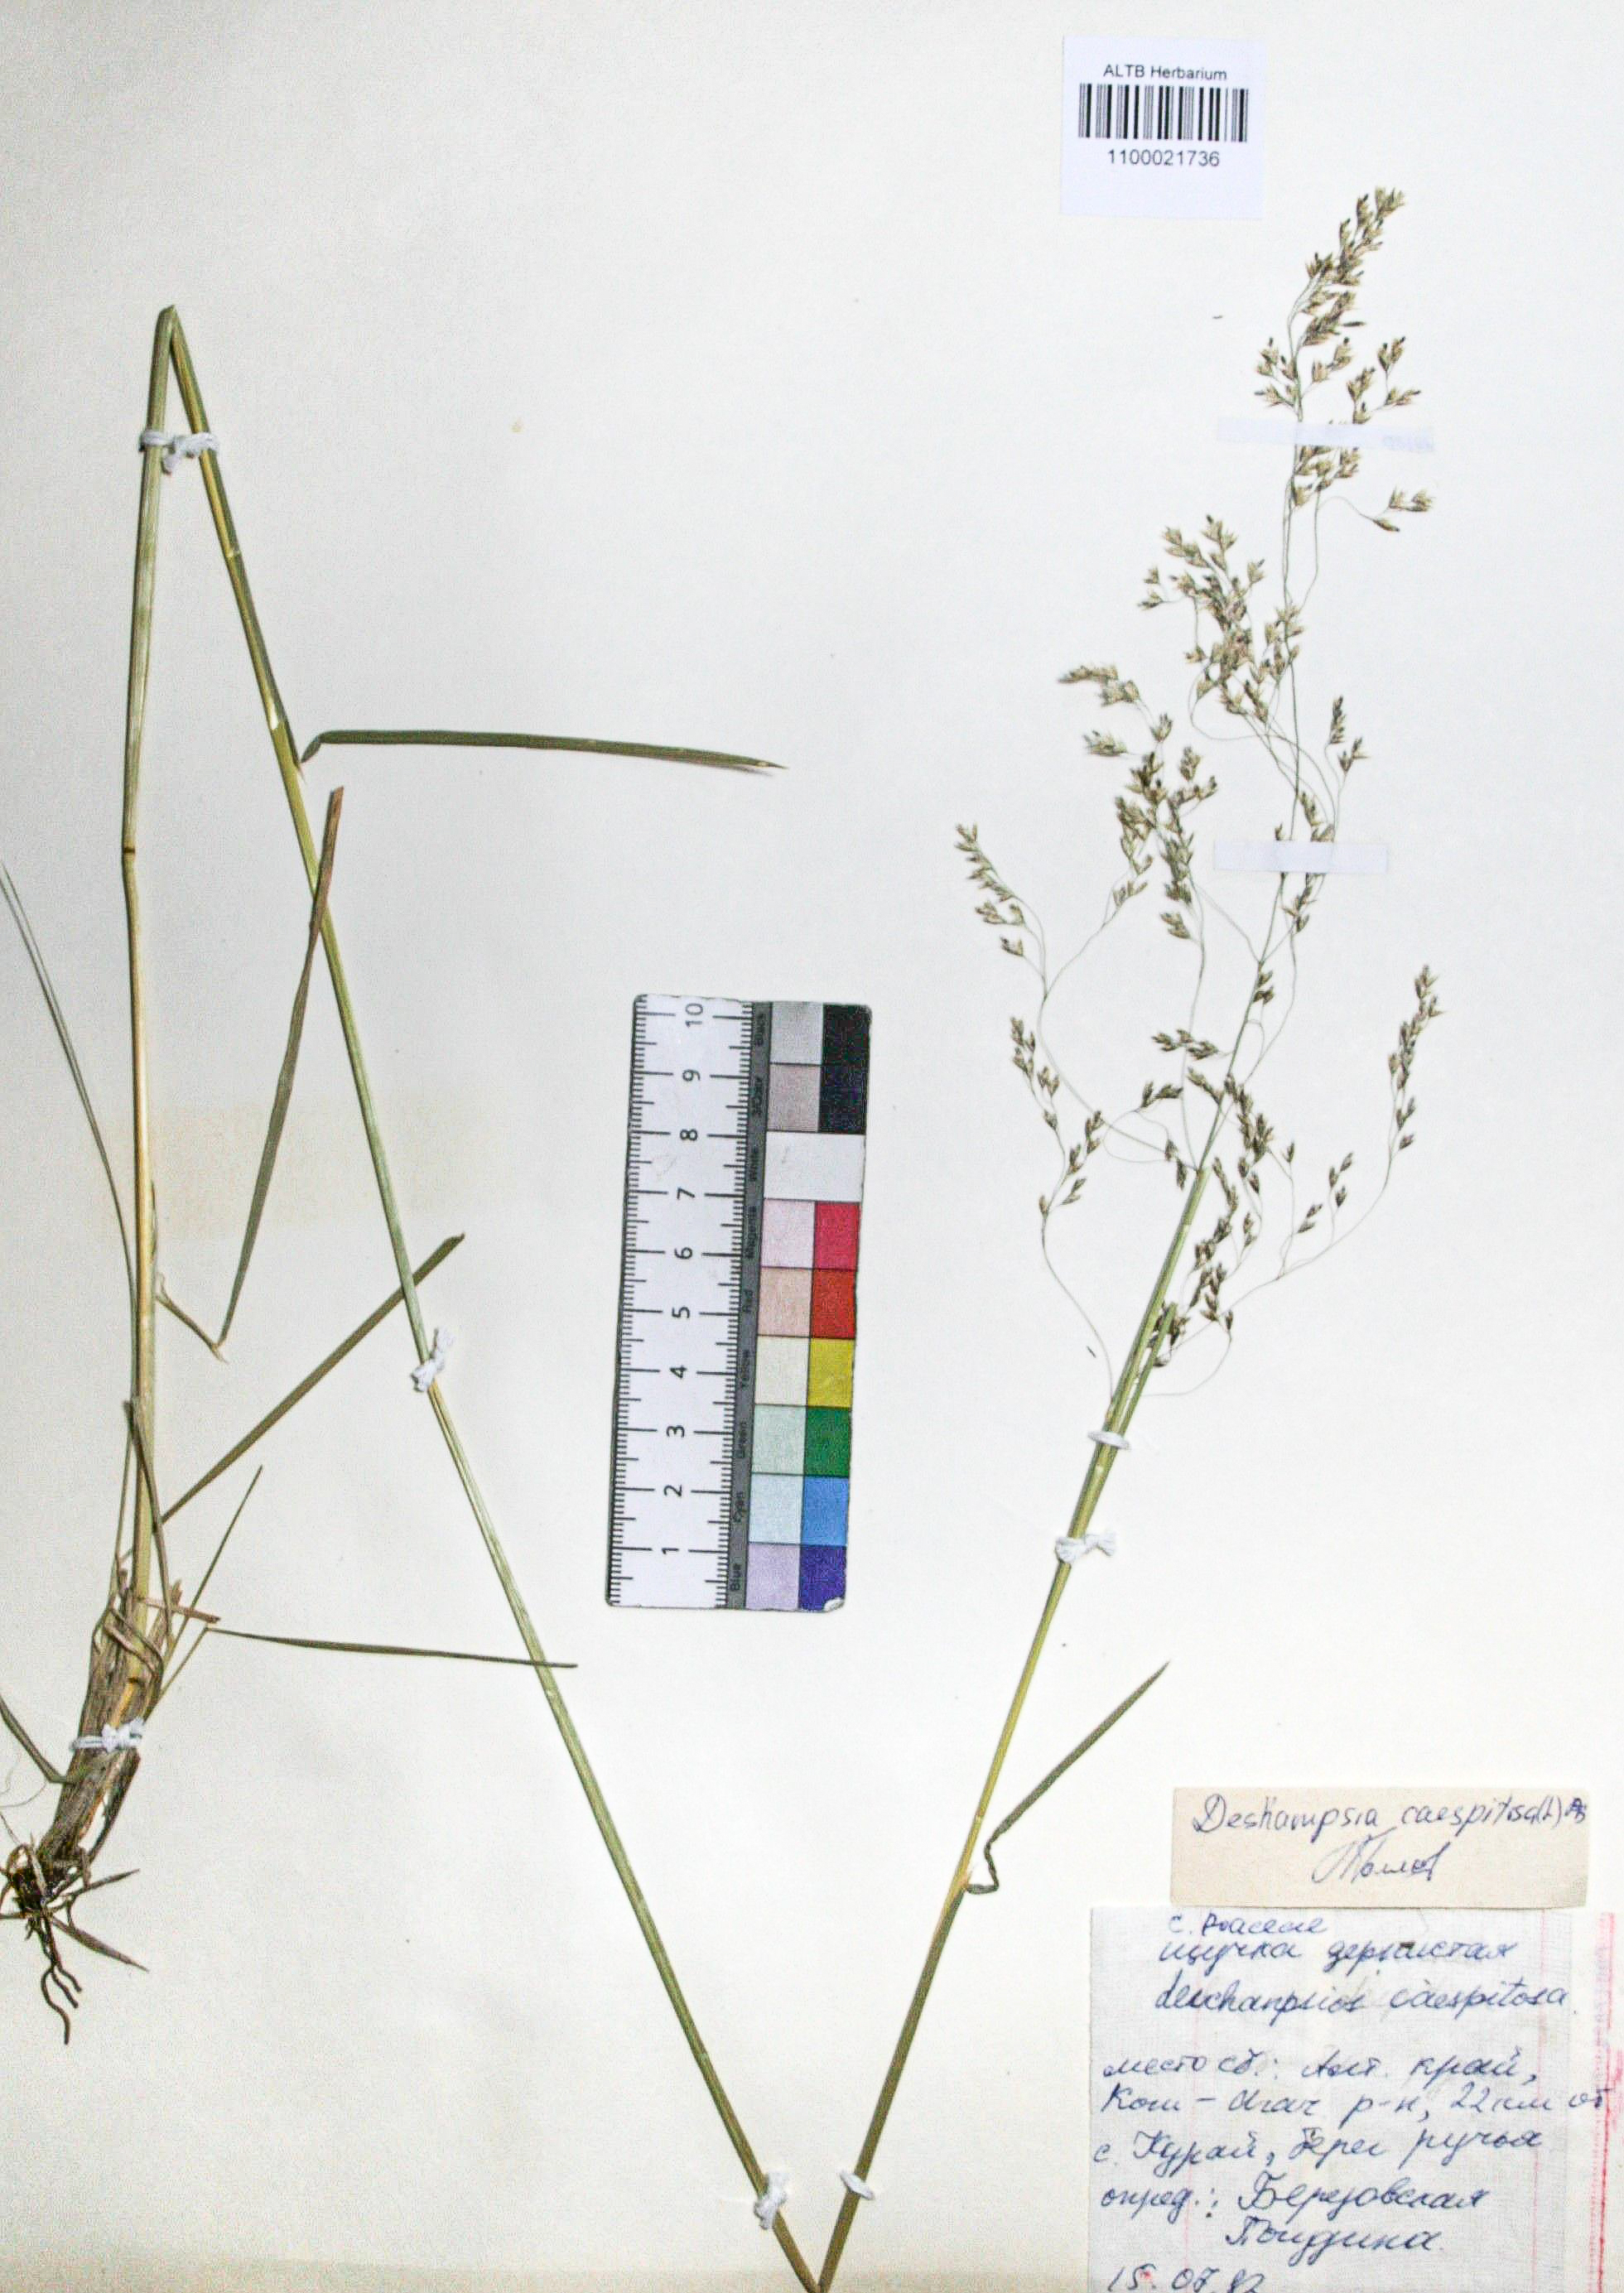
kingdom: Plantae
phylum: Tracheophyta
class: Liliopsida
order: Poales
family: Poaceae
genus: Deschampsia
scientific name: Deschampsia cespitosa
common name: Tufted hair-grass
